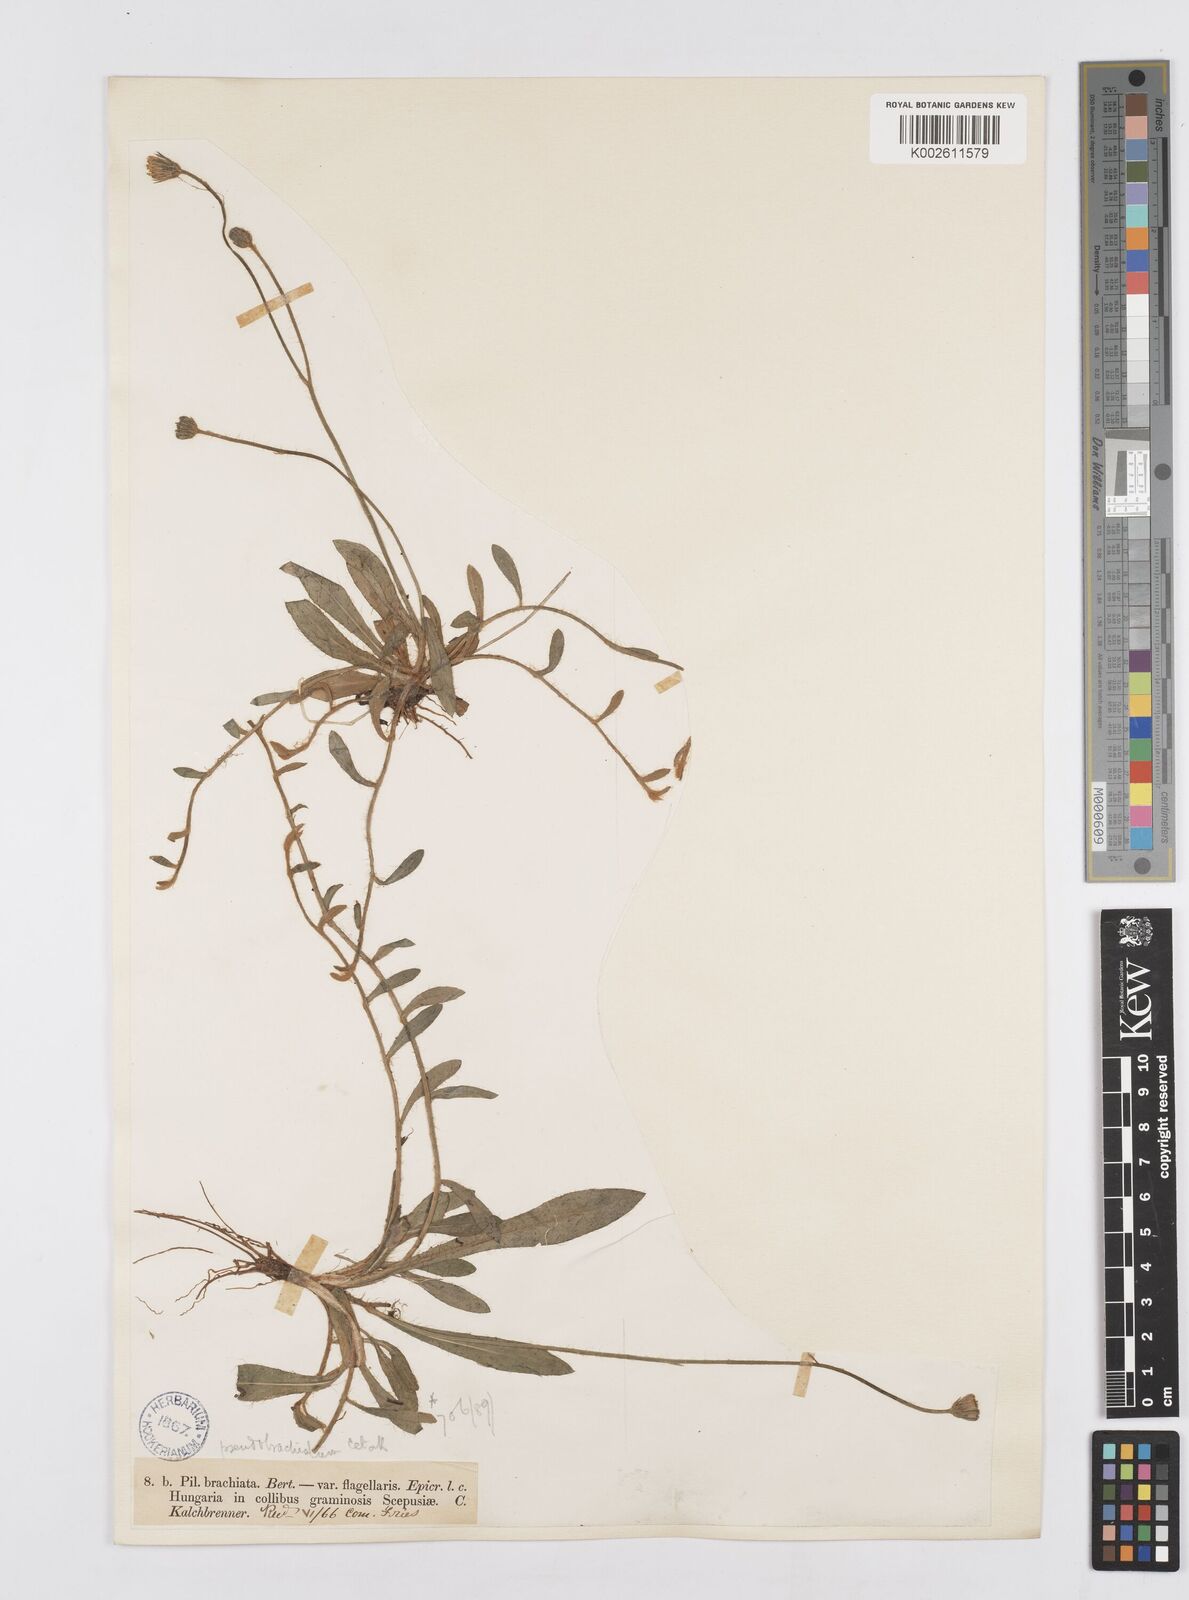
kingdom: Plantae
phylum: Tracheophyta
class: Magnoliopsida
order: Asterales
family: Asteraceae
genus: Pilosella
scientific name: Pilosella acutifolia
